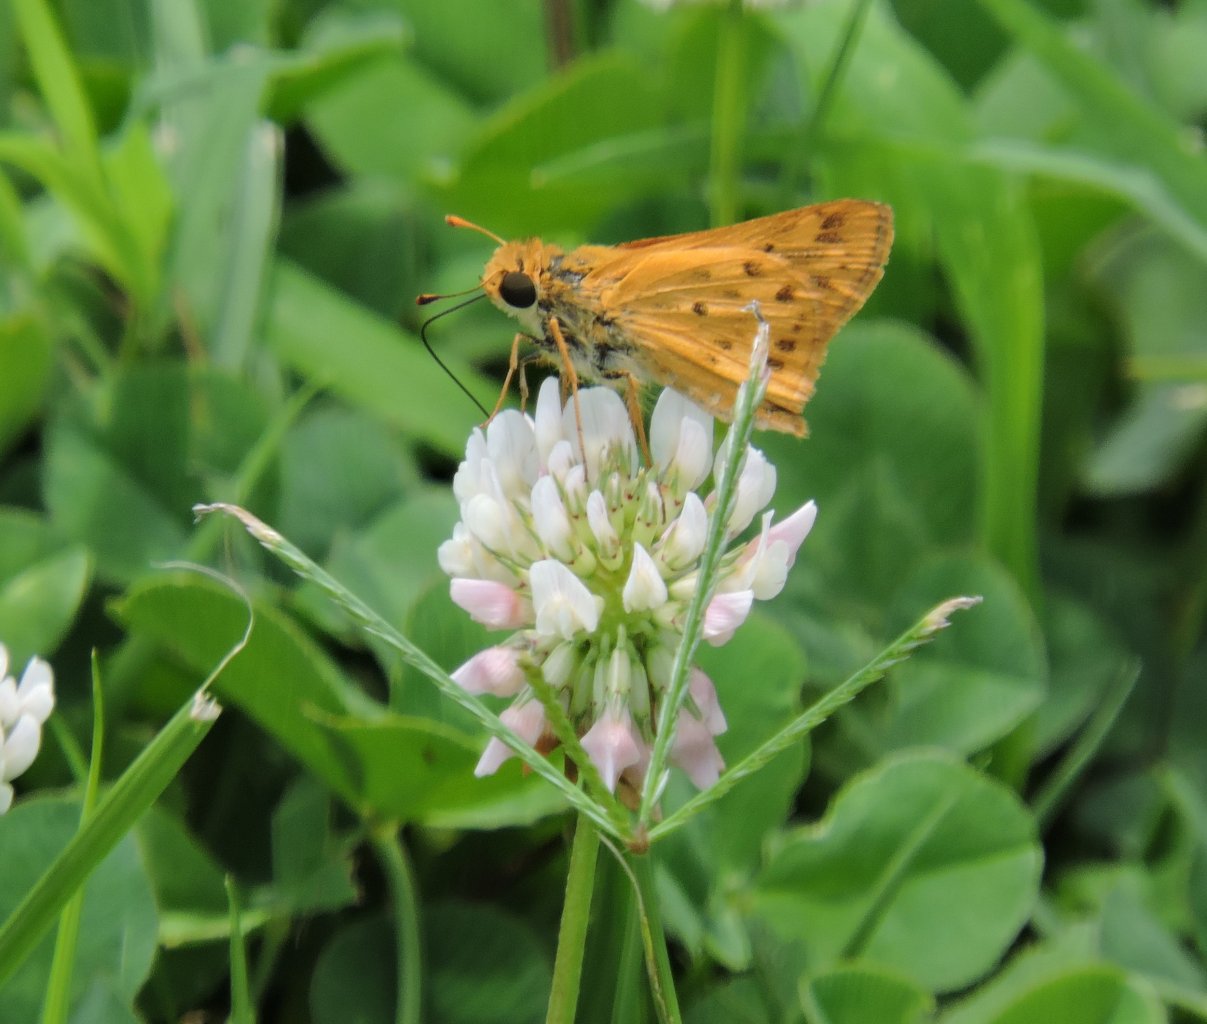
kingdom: Animalia
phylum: Arthropoda
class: Insecta
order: Lepidoptera
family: Hesperiidae
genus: Hylephila
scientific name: Hylephila phyleus
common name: Fiery Skipper
